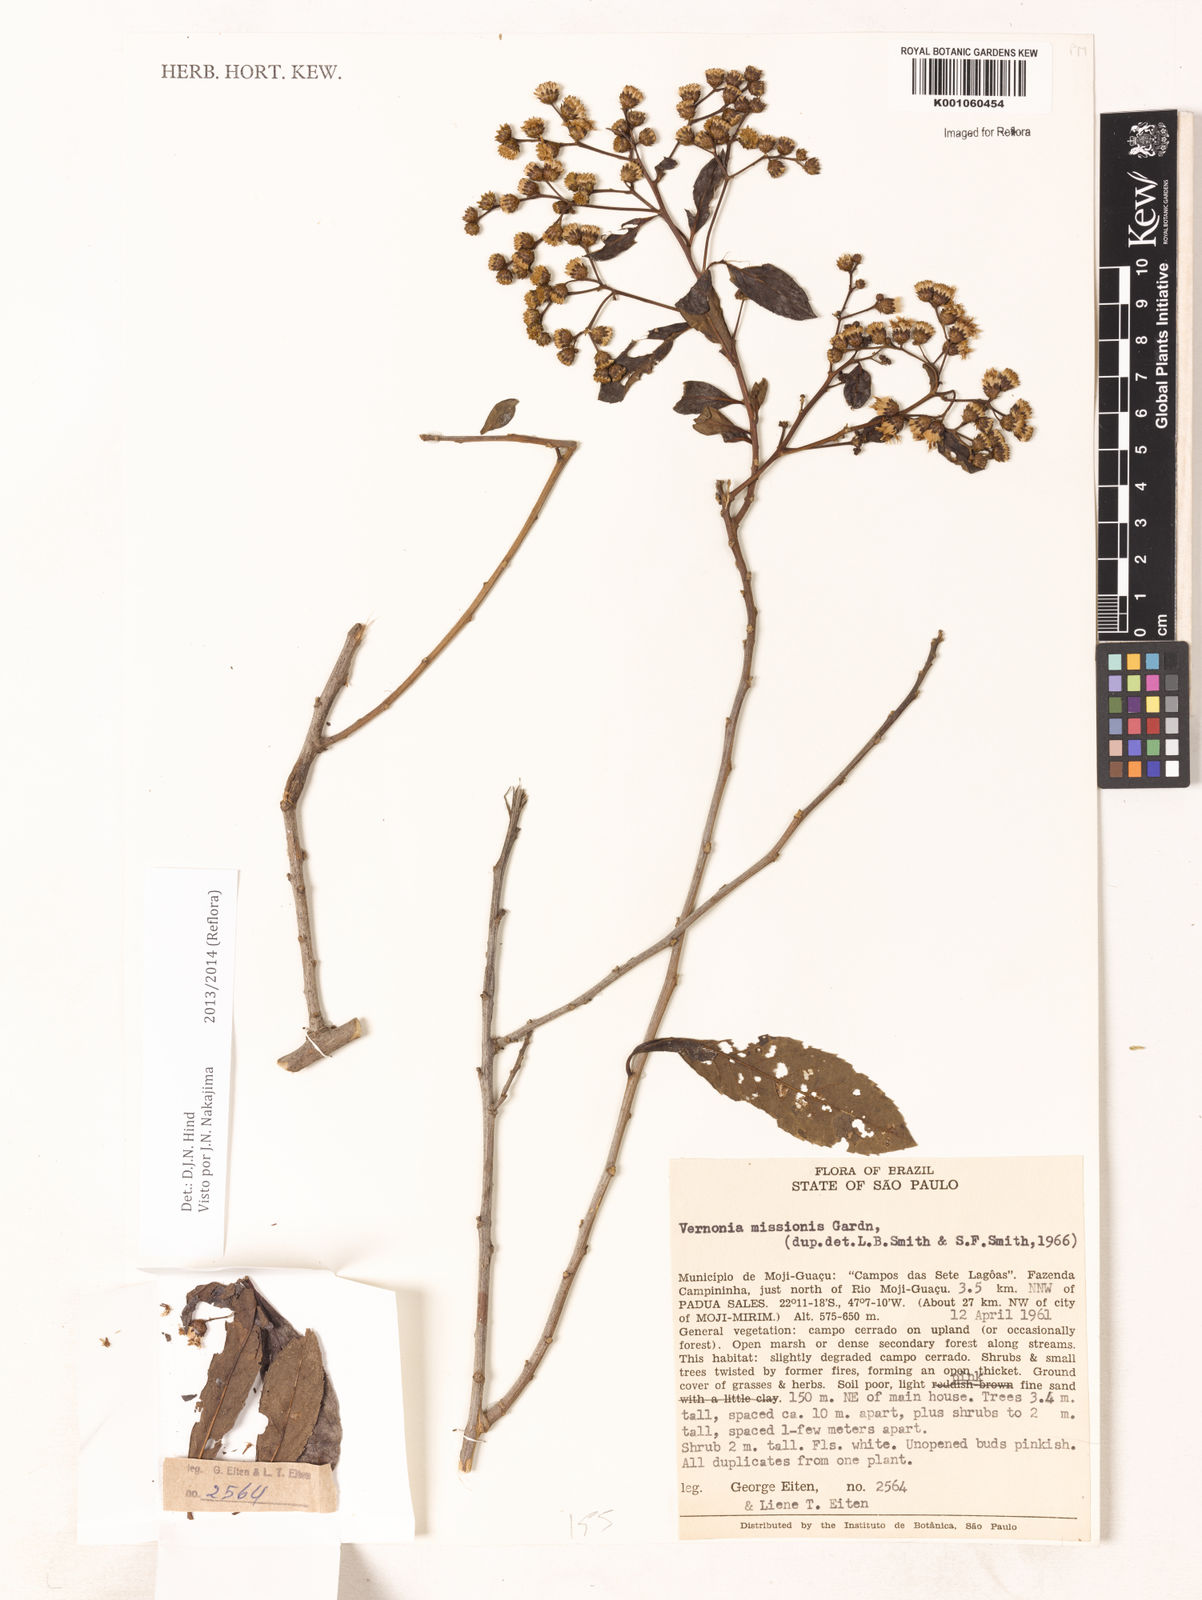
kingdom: Plantae
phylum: Tracheophyta
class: Magnoliopsida
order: Asterales
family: Asteraceae
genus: Vernonanthura
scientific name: Vernonanthura cymosa
